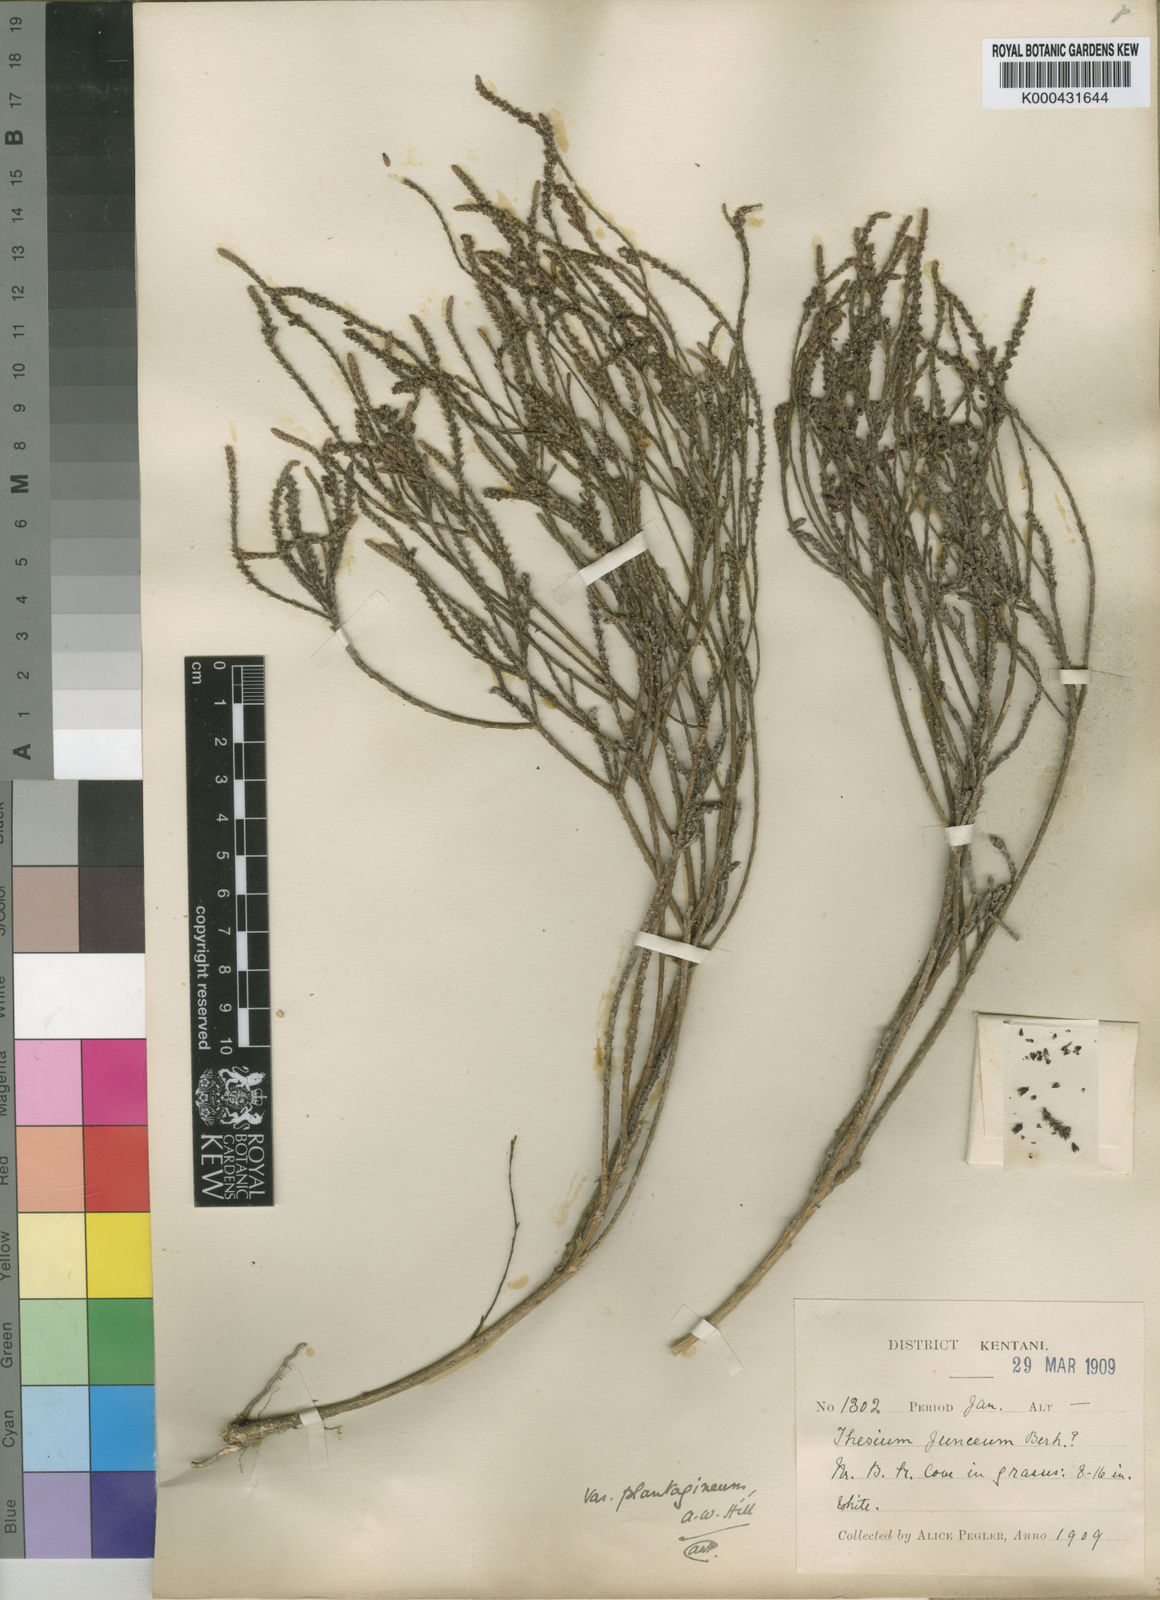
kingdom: Plantae
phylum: Tracheophyta
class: Magnoliopsida
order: Santalales
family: Thesiaceae
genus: Thesium
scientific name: Thesium
